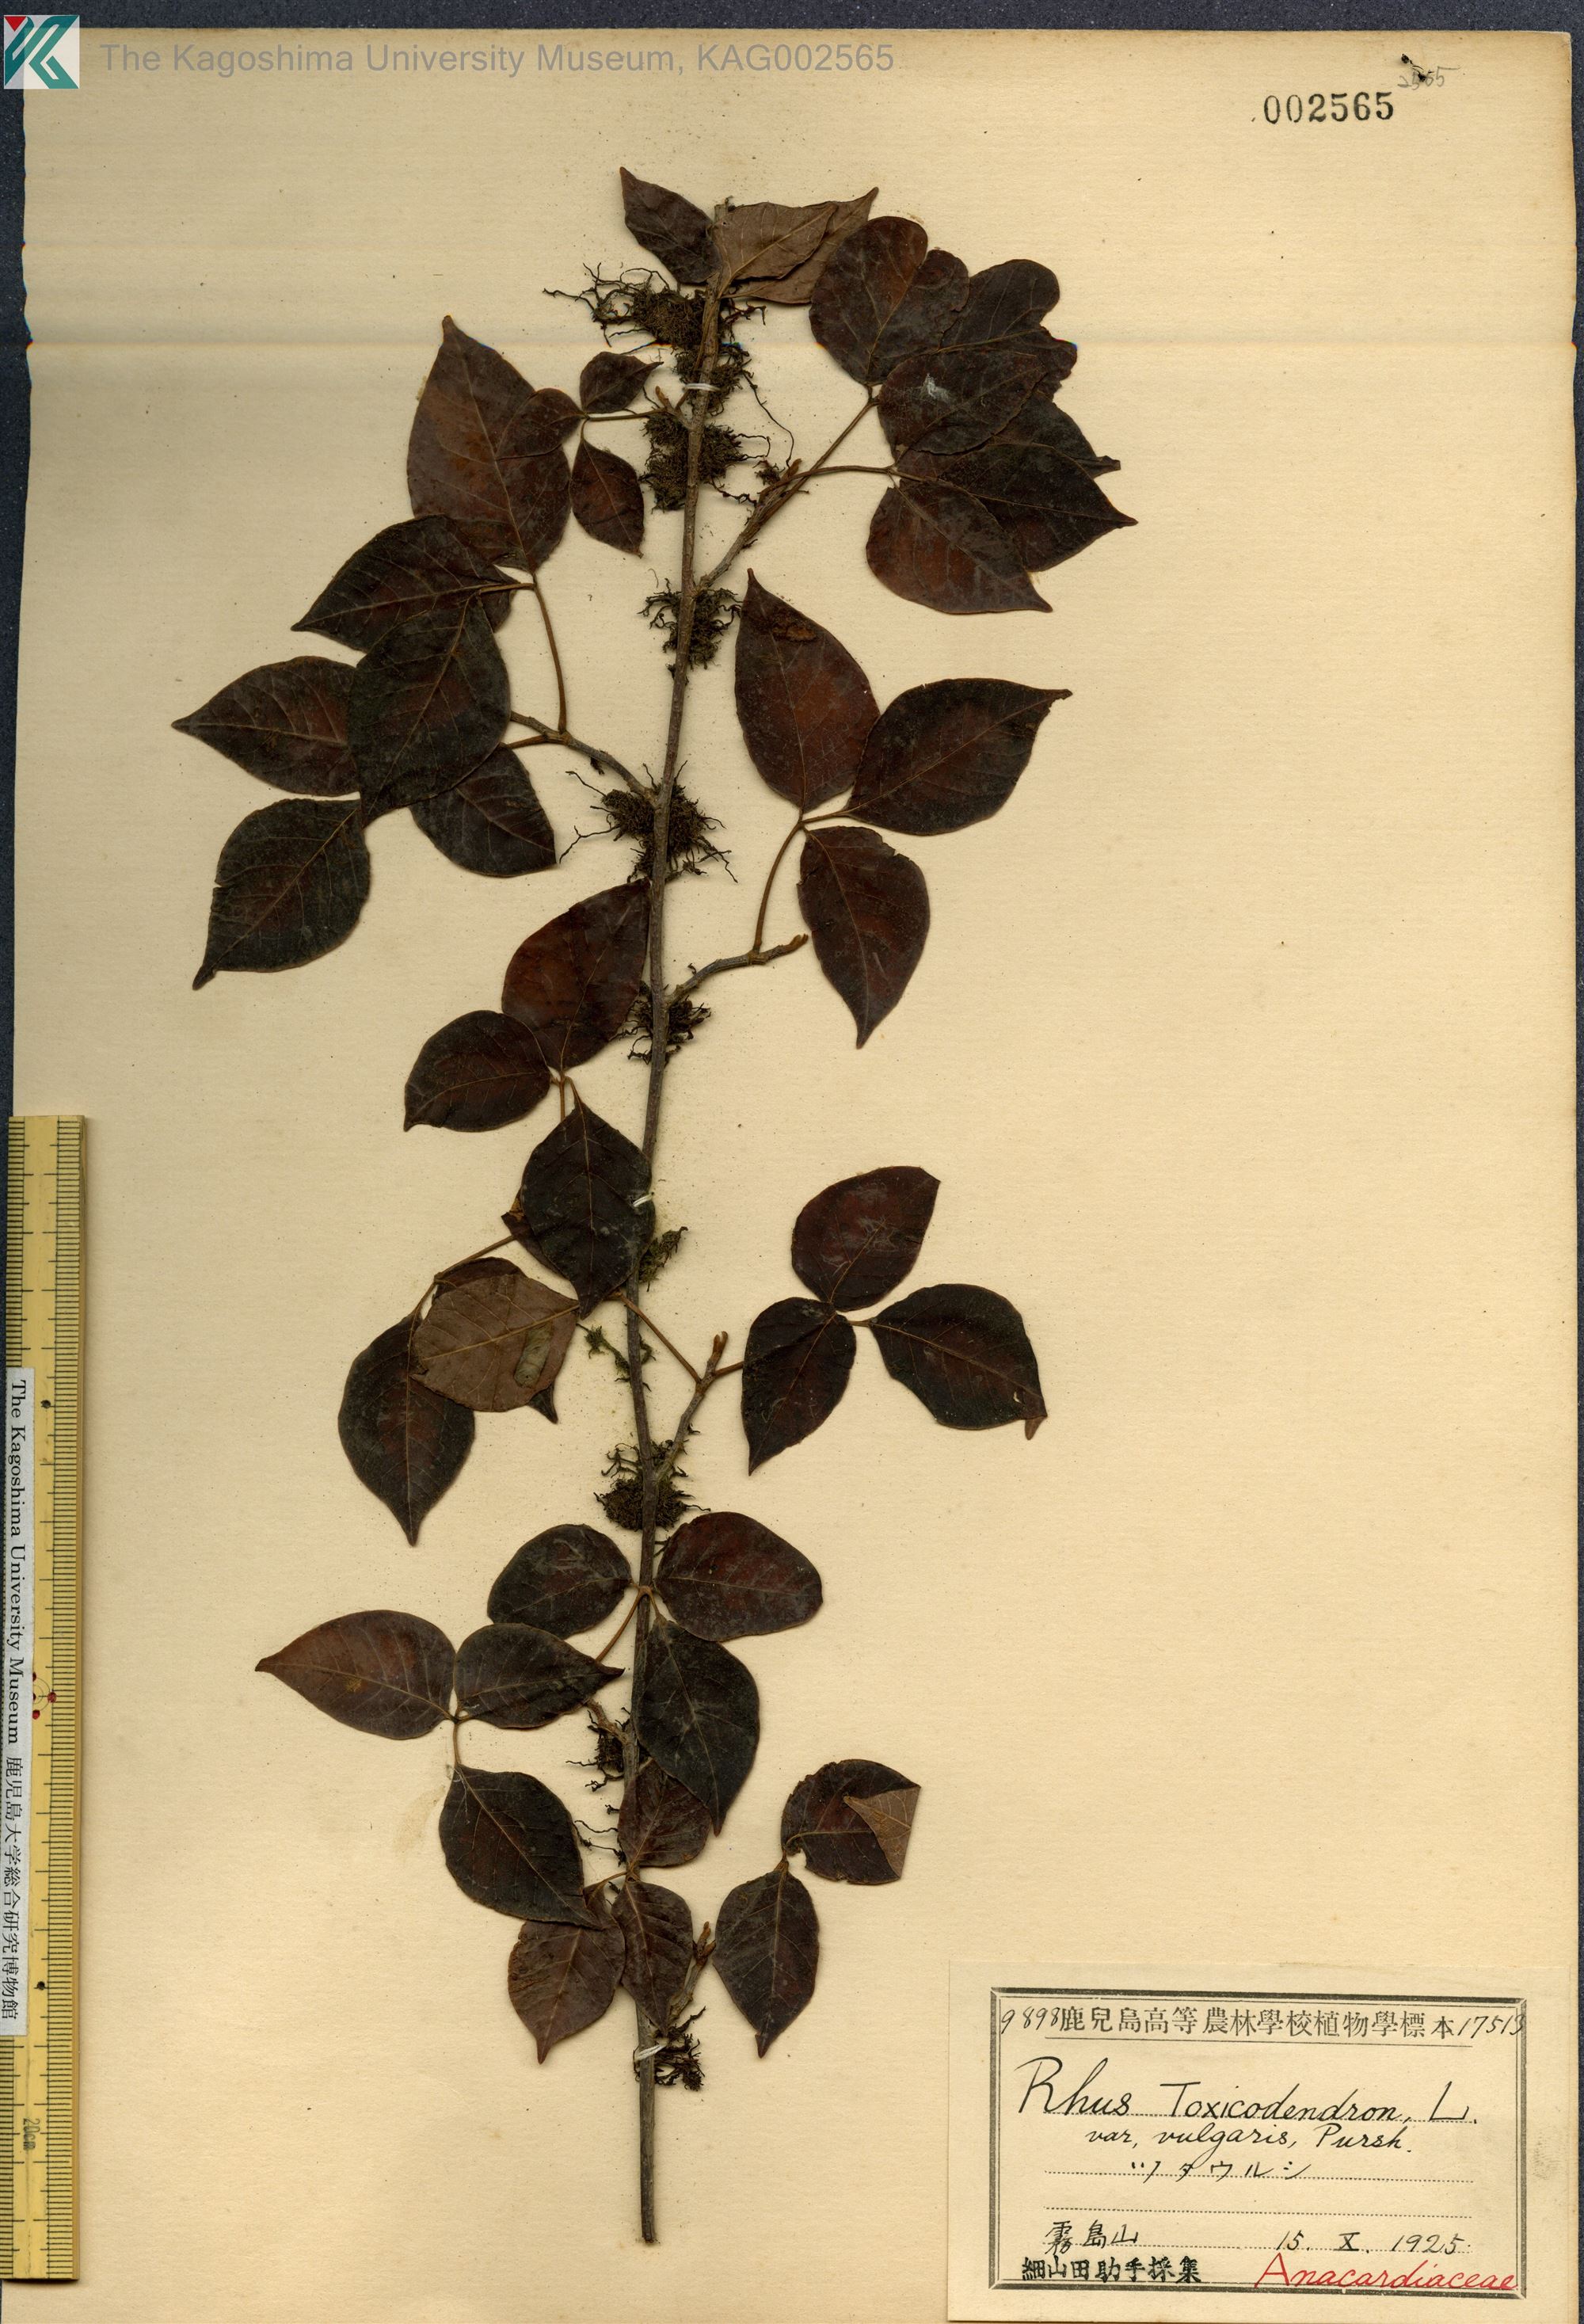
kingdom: Plantae
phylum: Tracheophyta
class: Magnoliopsida
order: Sapindales
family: Anacardiaceae
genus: Toxicodendron
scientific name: Toxicodendron orientale
